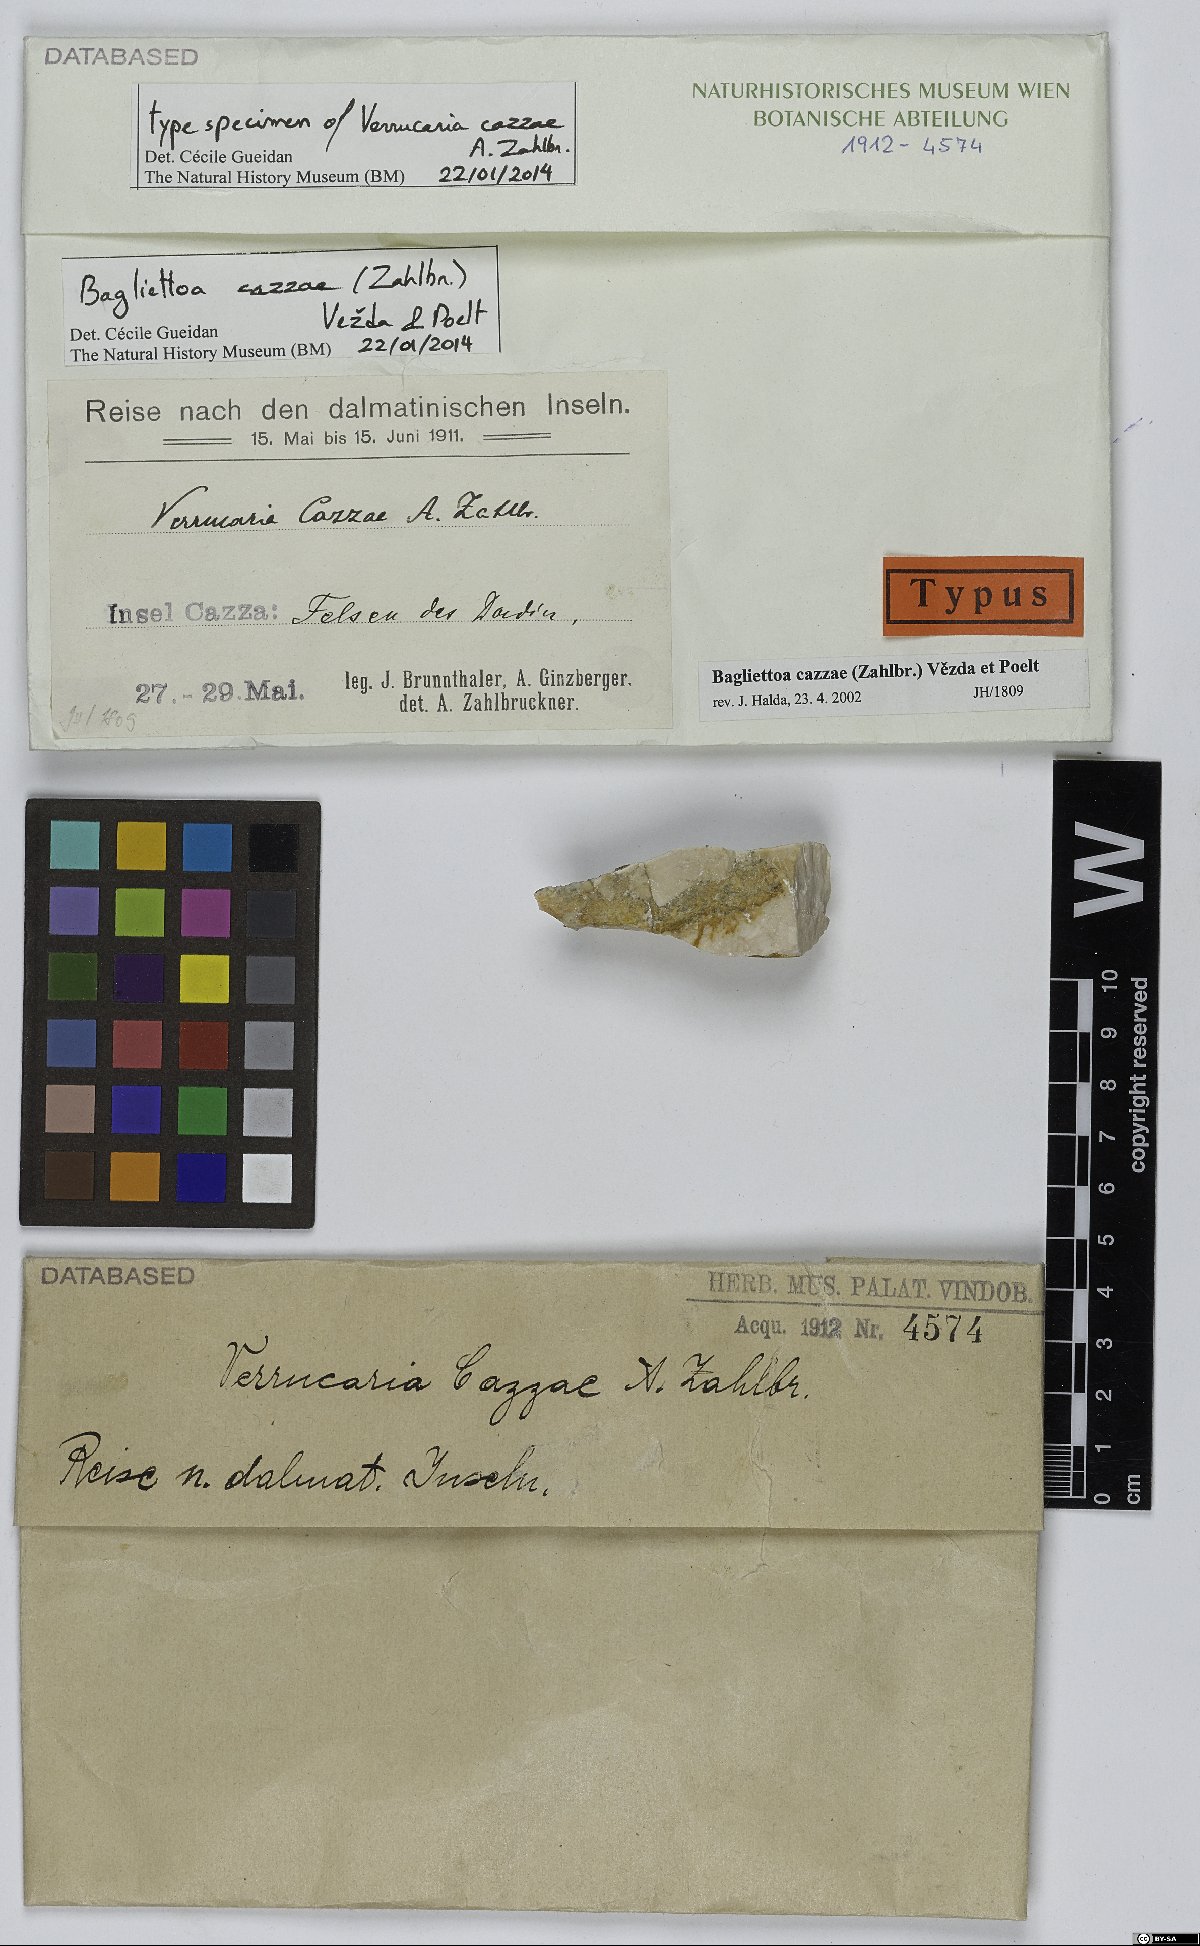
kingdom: Fungi
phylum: Ascomycota
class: Eurotiomycetes
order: Verrucariales
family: Verrucariaceae
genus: Bagliettoa
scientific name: Bagliettoa cazzae
